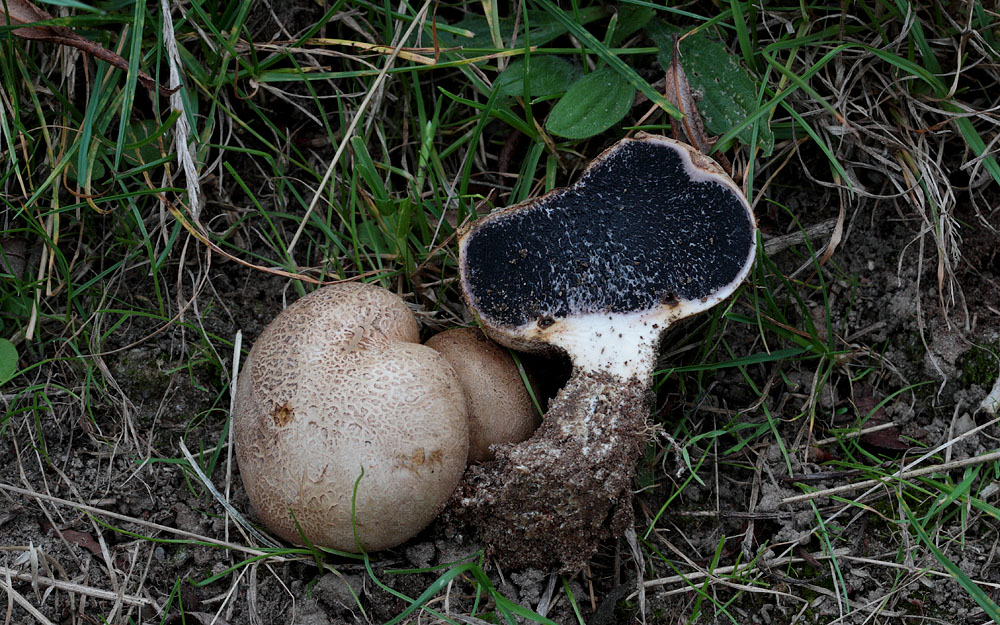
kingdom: Fungi
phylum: Basidiomycota
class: Agaricomycetes
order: Boletales
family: Sclerodermataceae
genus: Scleroderma
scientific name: Scleroderma bovista
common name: bovist-bruskbold
